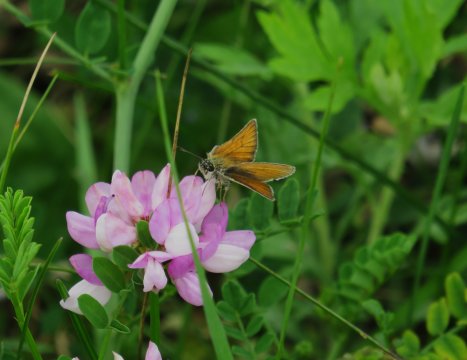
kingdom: Animalia
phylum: Arthropoda
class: Insecta
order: Lepidoptera
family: Hesperiidae
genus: Thymelicus
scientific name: Thymelicus lineola
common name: European Skipper
